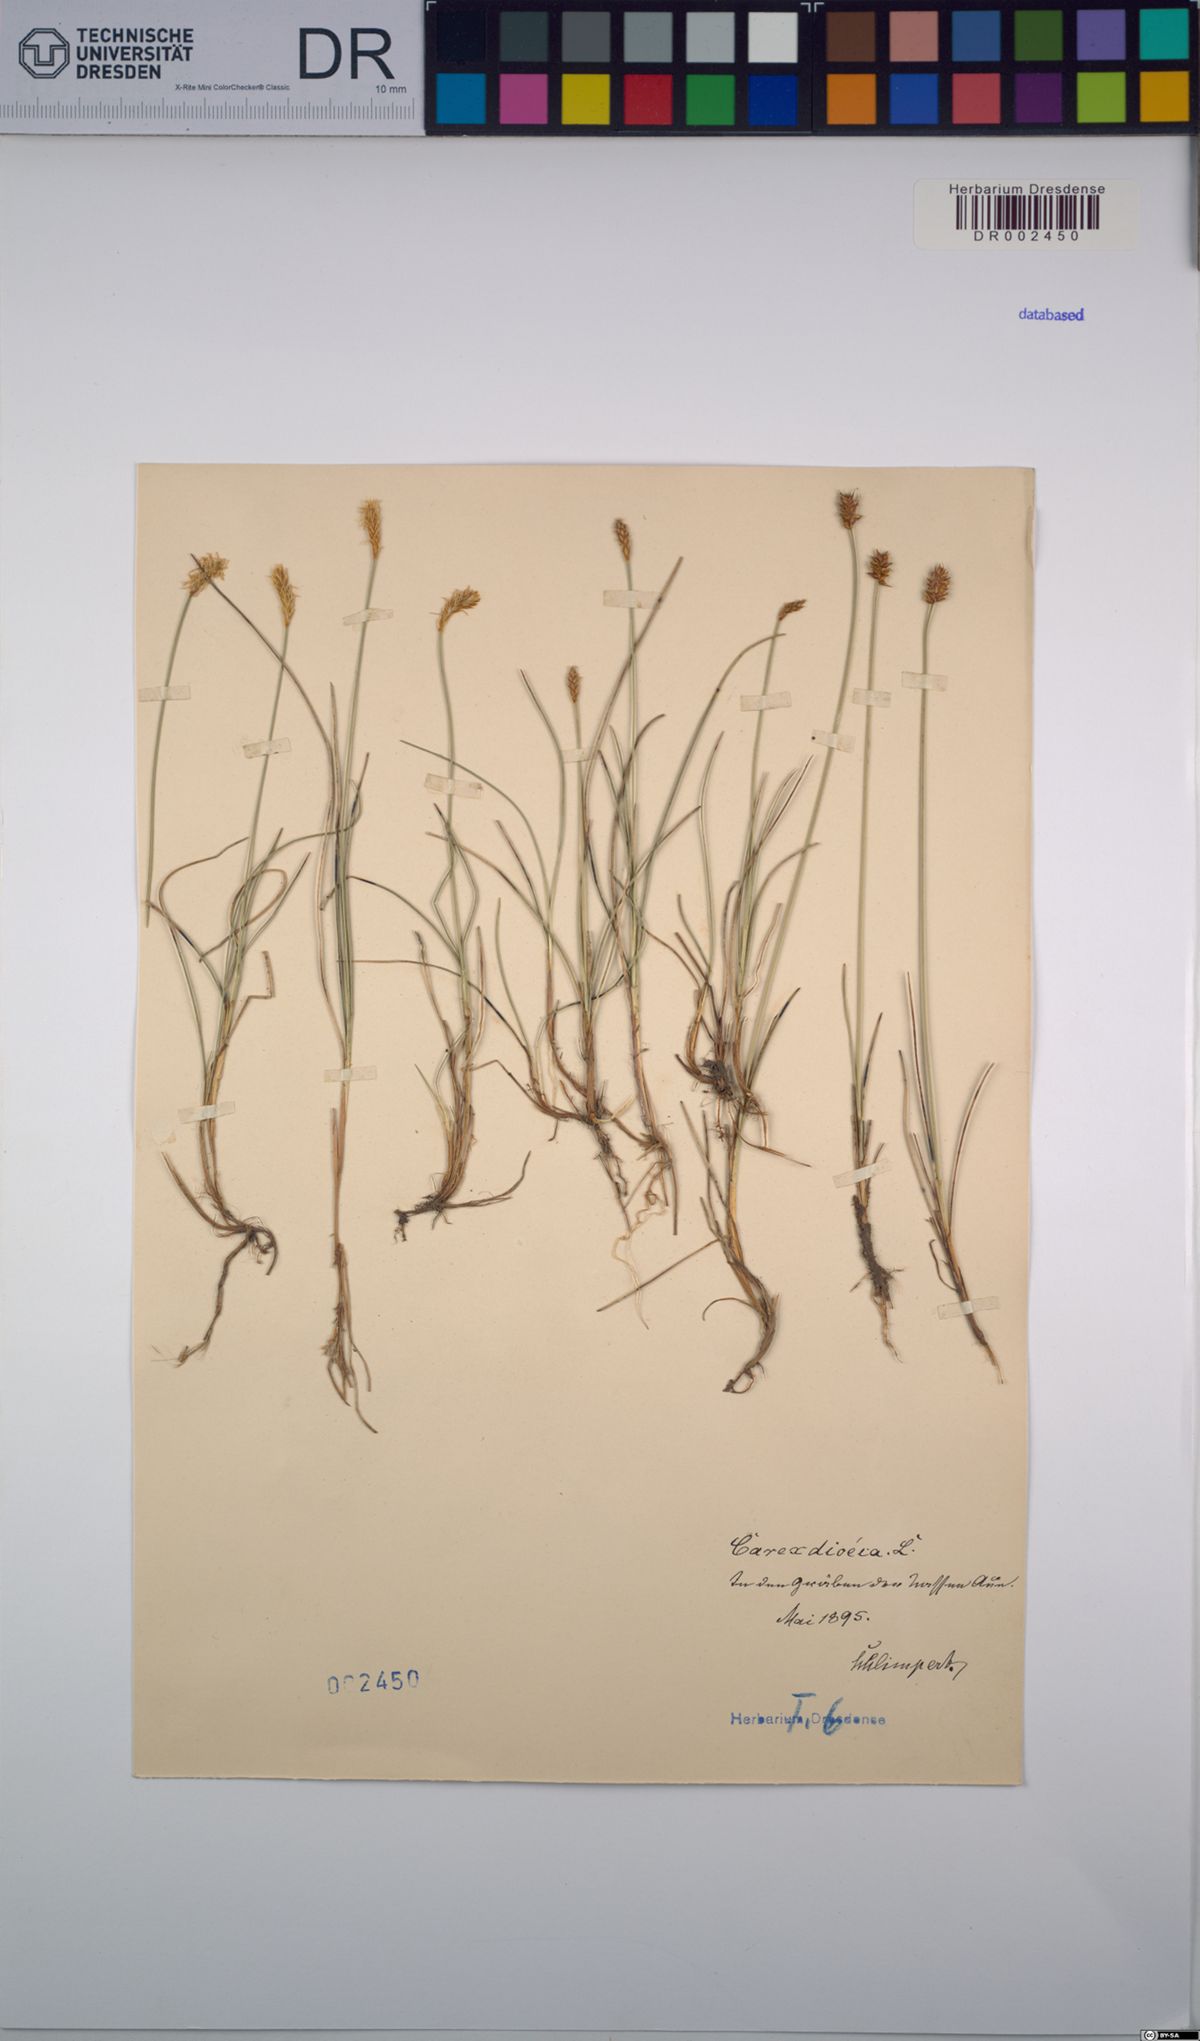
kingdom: Plantae
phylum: Tracheophyta
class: Liliopsida
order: Poales
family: Cyperaceae
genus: Carex
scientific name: Carex dioica
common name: Dioecious sedge
